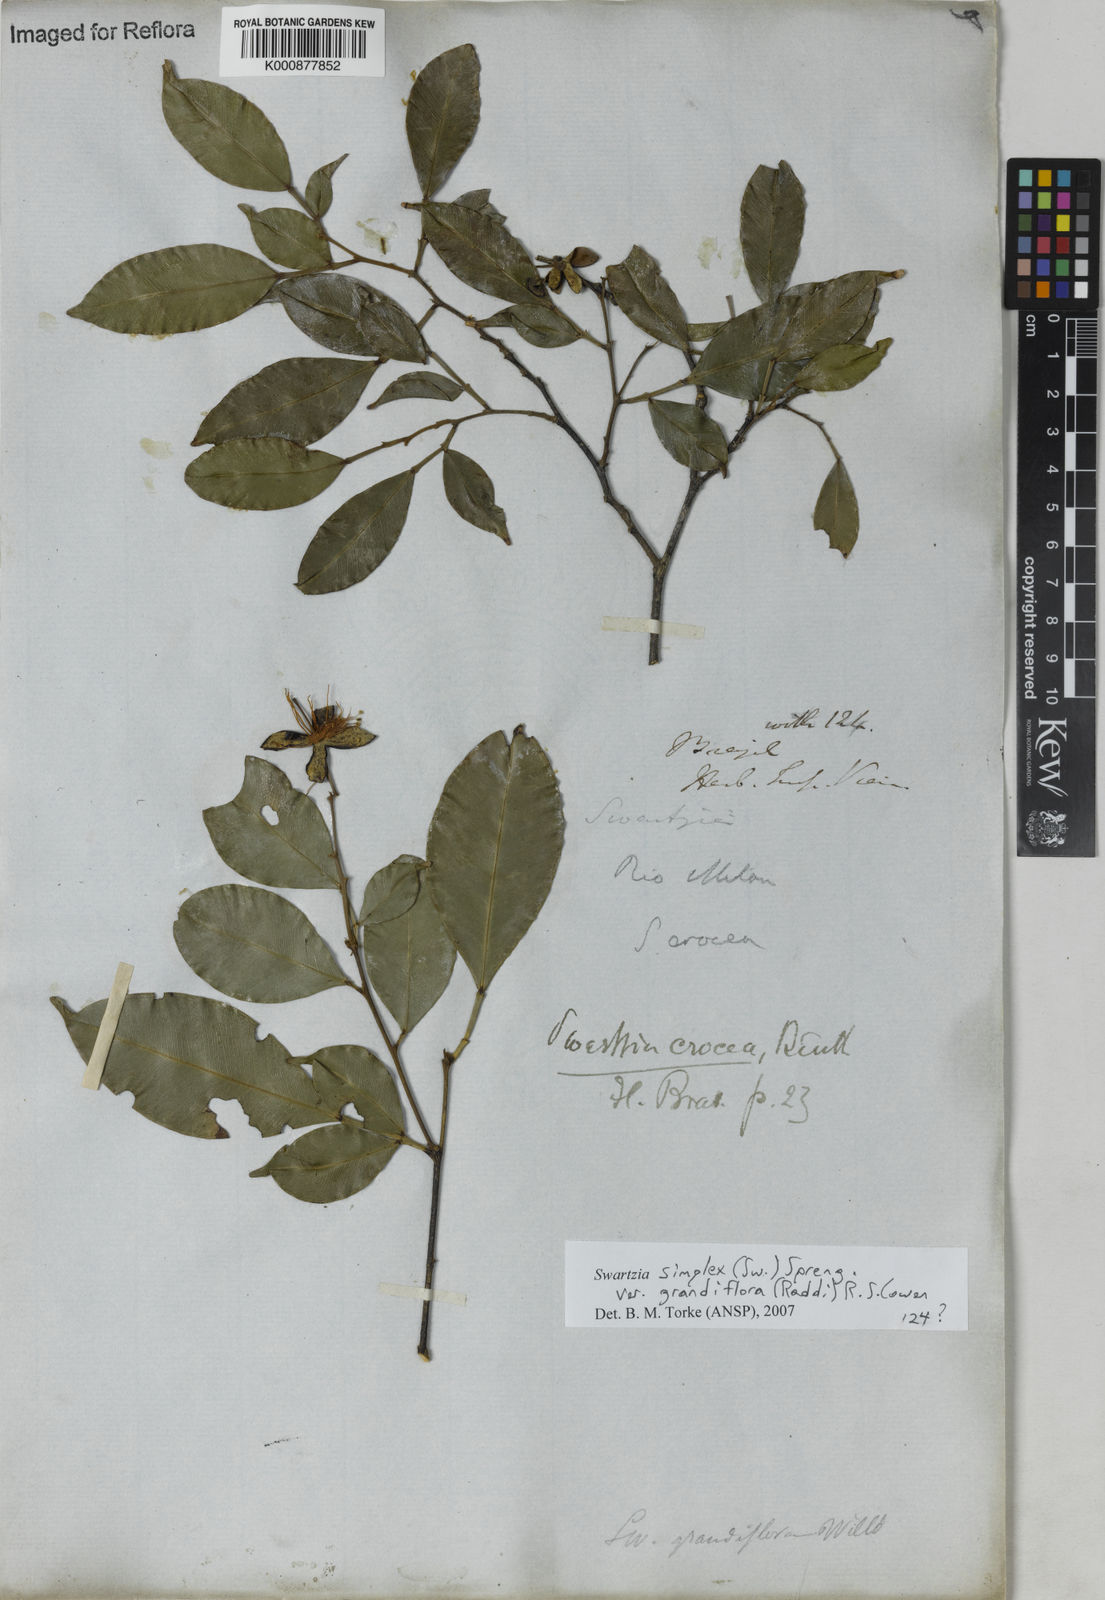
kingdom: Plantae
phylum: Tracheophyta
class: Magnoliopsida
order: Fabales
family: Fabaceae
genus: Swartzia
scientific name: Swartzia simplex
